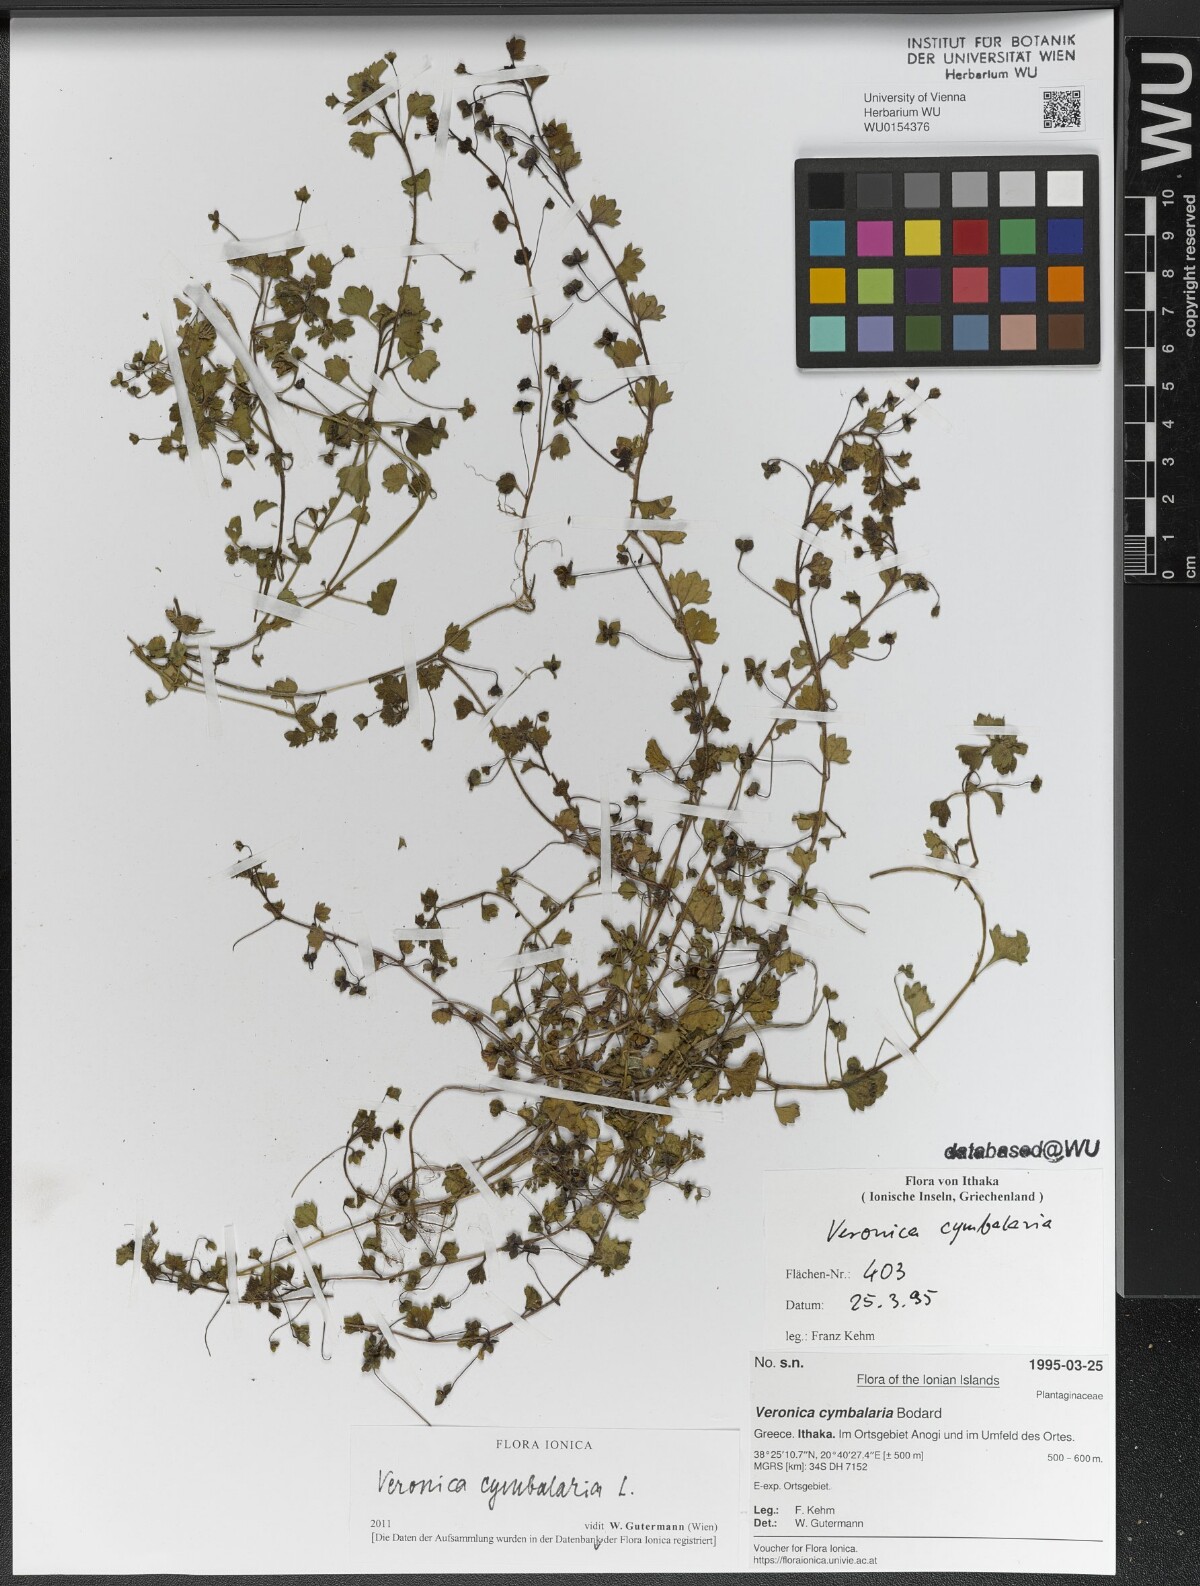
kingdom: Plantae
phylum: Tracheophyta
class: Magnoliopsida
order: Lamiales
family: Plantaginaceae
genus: Veronica
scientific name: Veronica cymbalaria
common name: Pale speedwell
